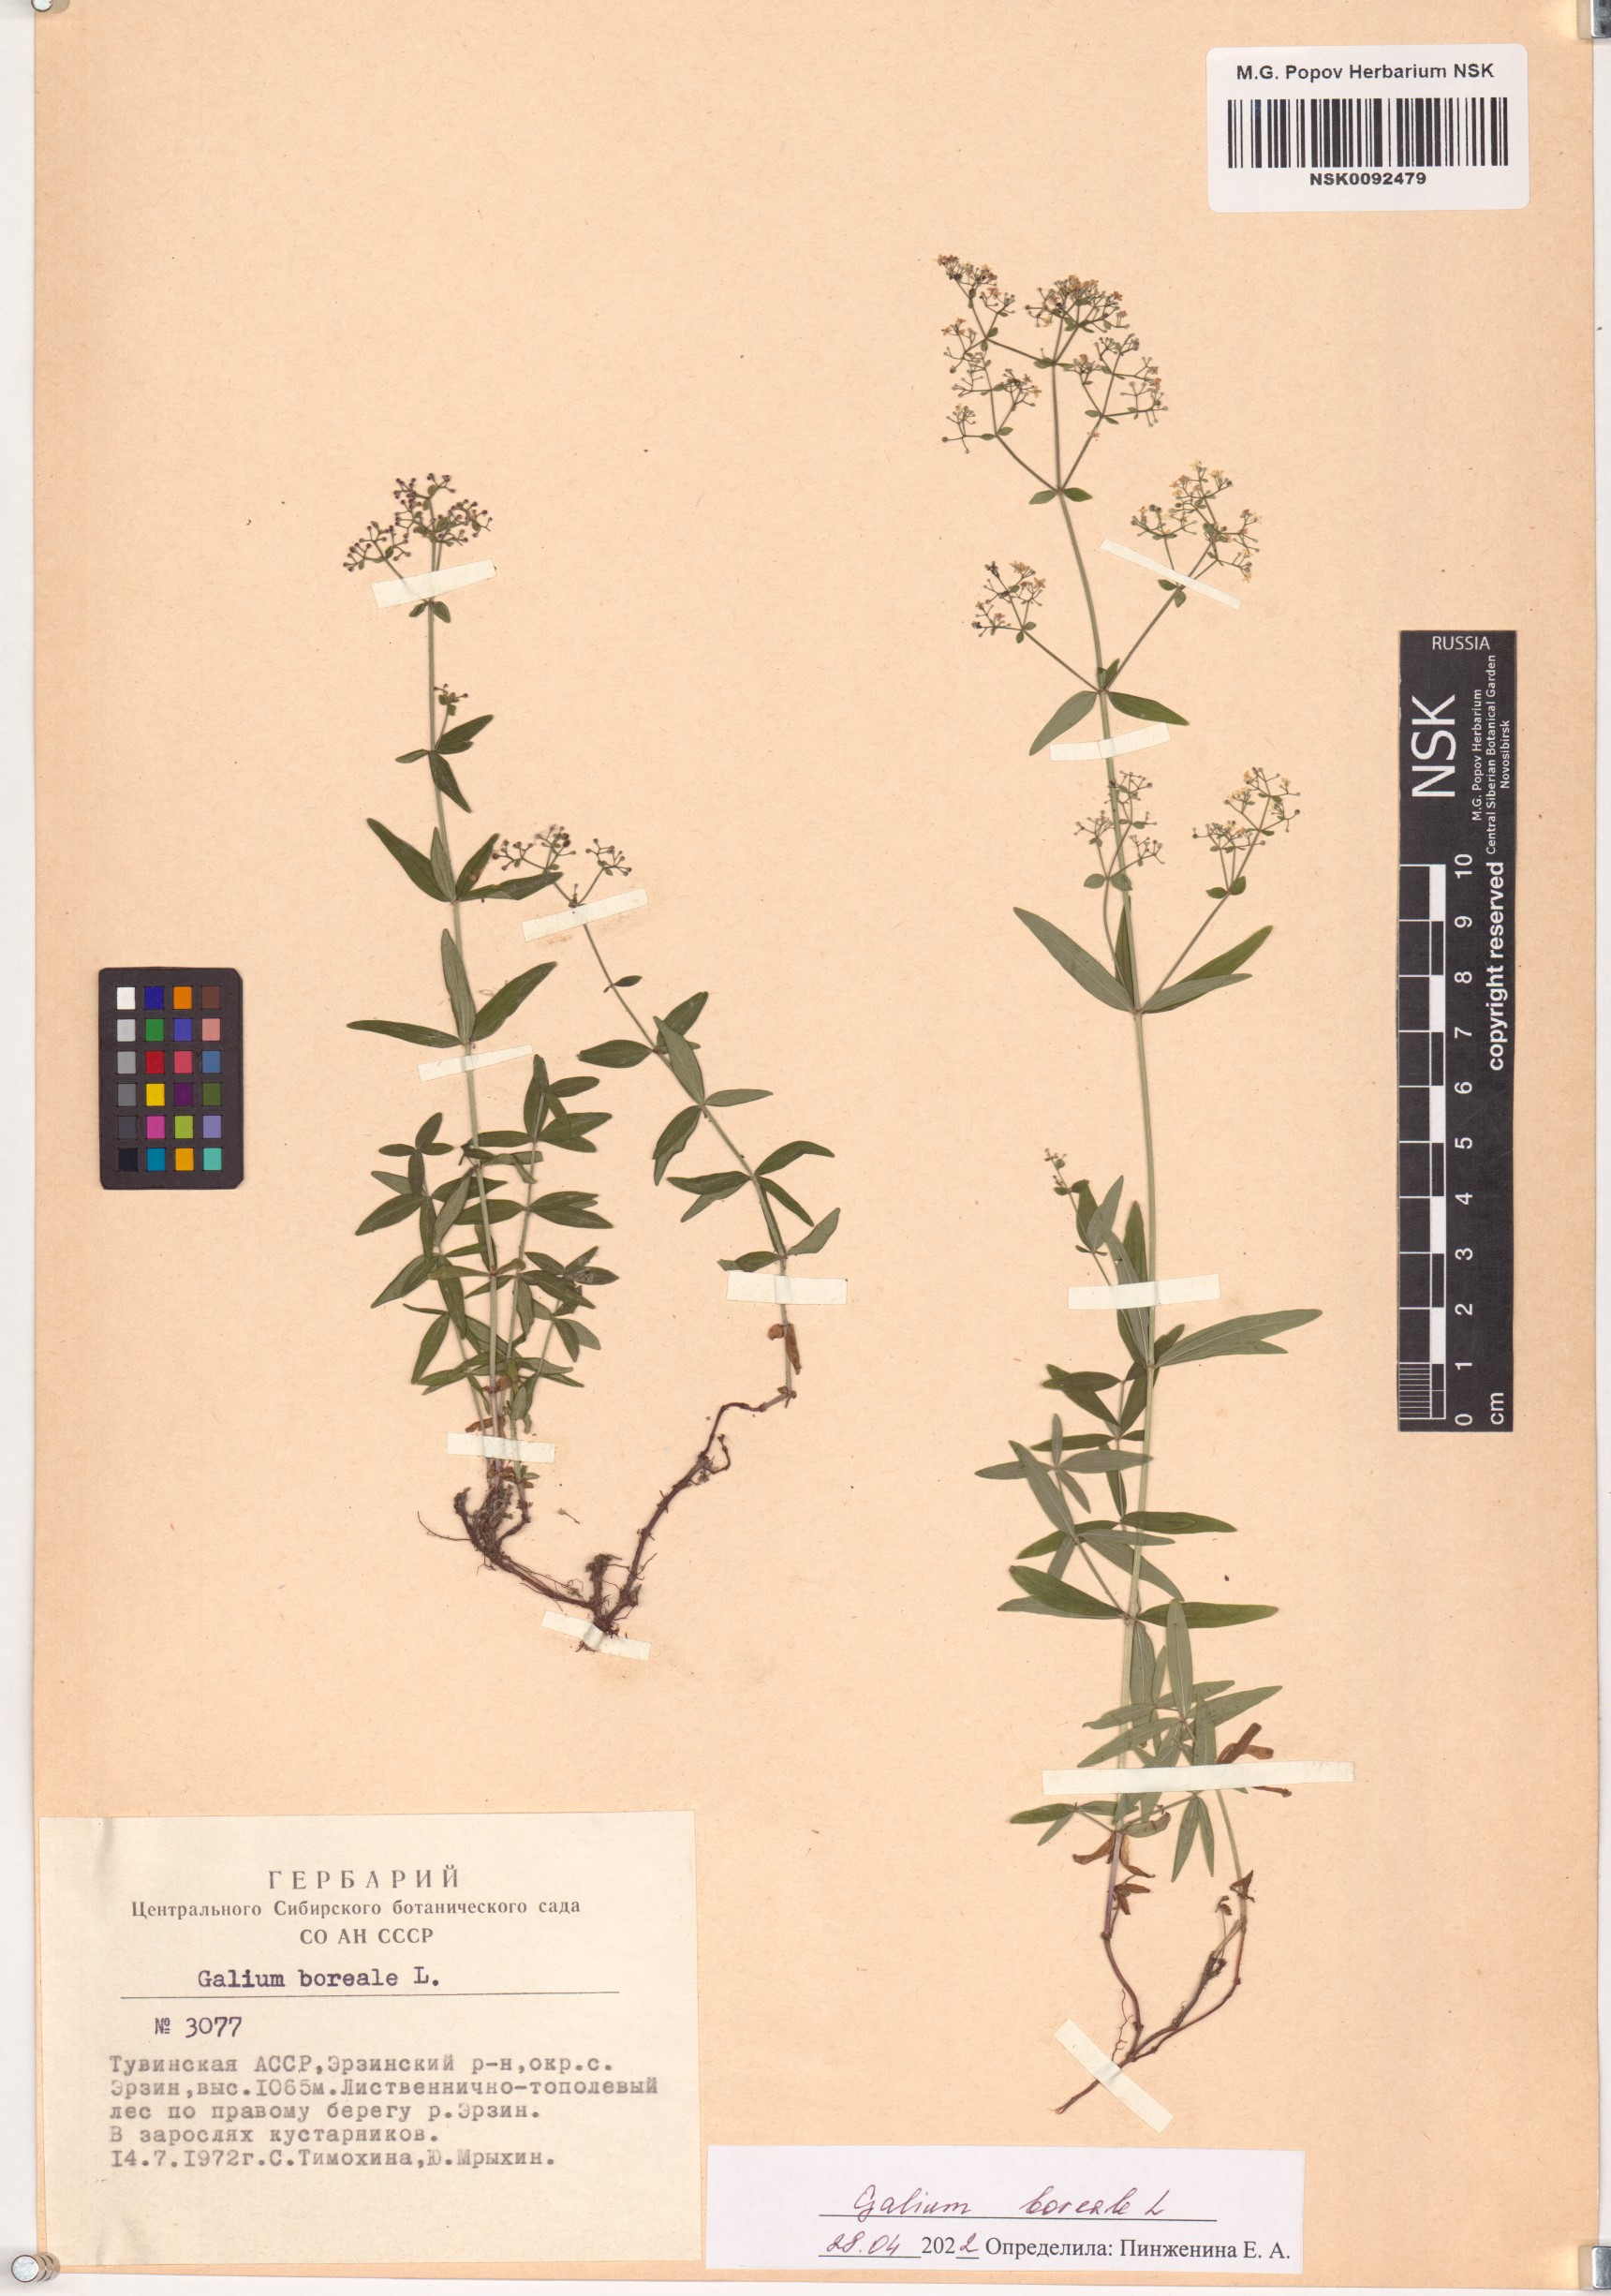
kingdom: Plantae
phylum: Tracheophyta
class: Magnoliopsida
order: Gentianales
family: Rubiaceae
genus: Galium
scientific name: Galium boreale
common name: Northern bedstraw
